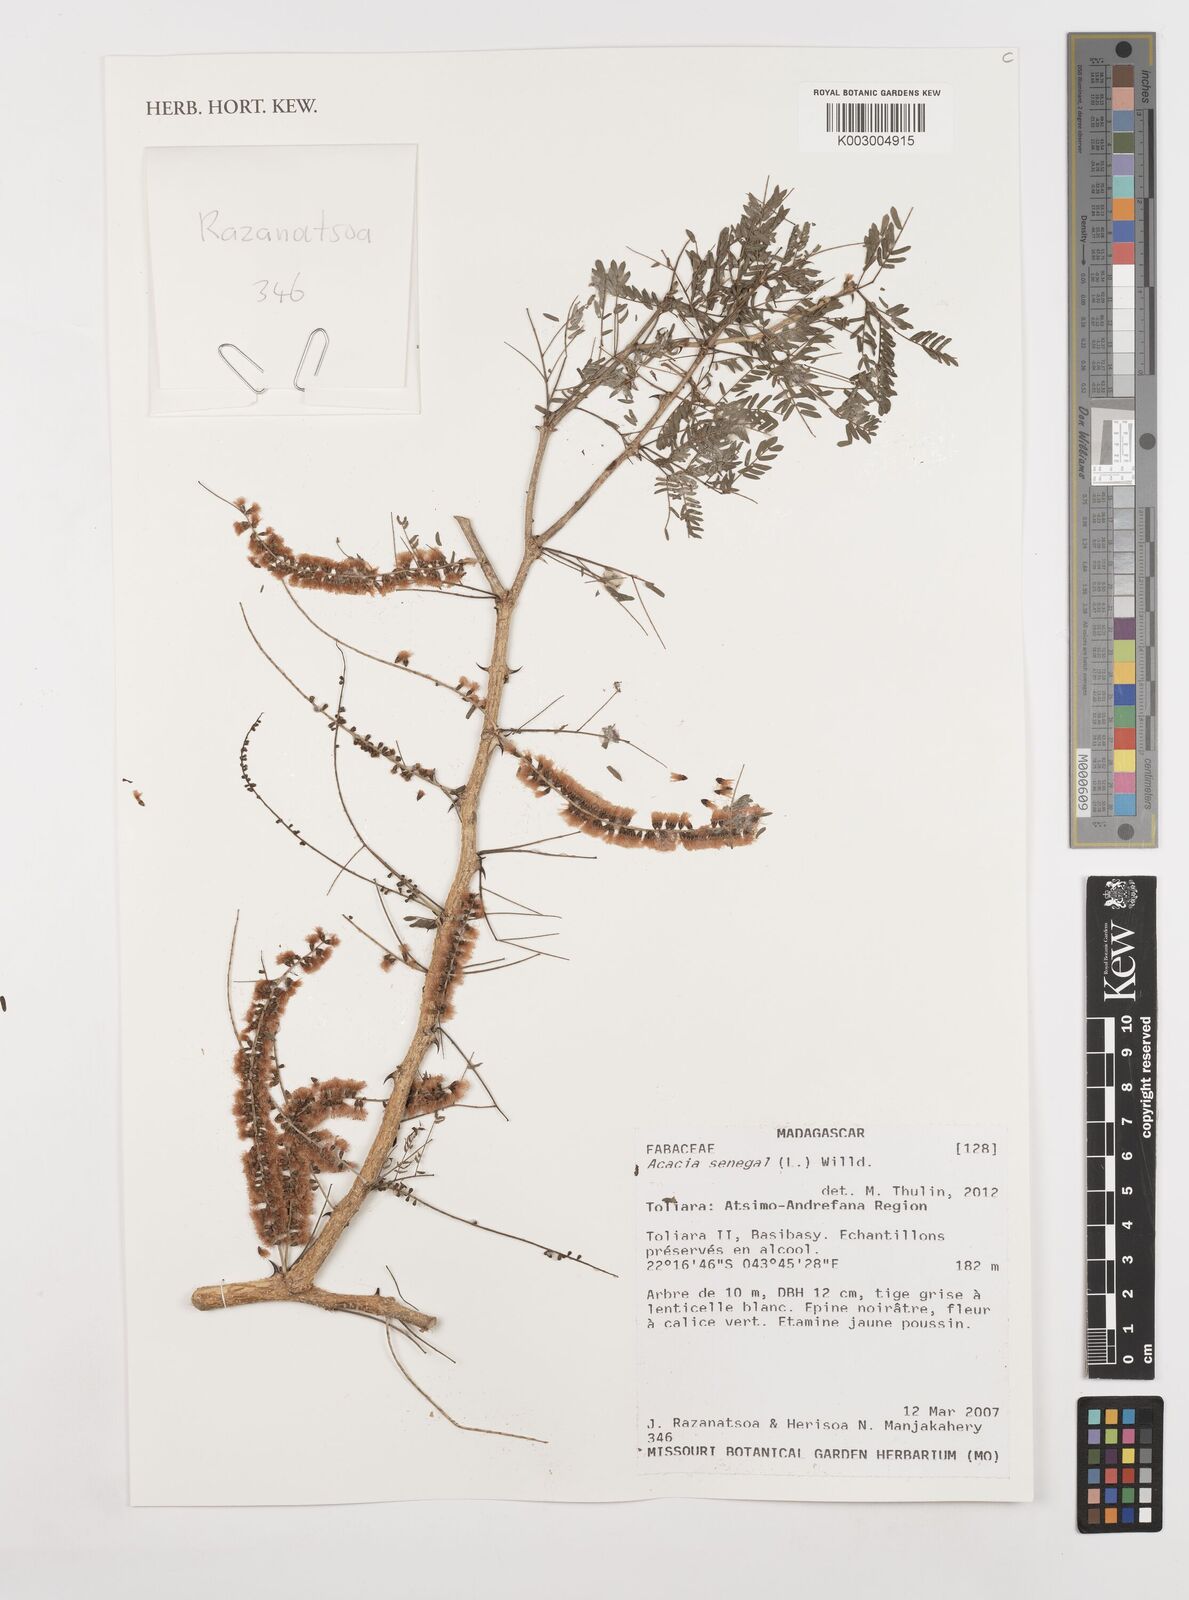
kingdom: Plantae
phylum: Tracheophyta
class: Magnoliopsida
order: Fabales
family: Fabaceae
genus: Senegalia
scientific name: Senegalia senegal
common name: Senegal-gum
